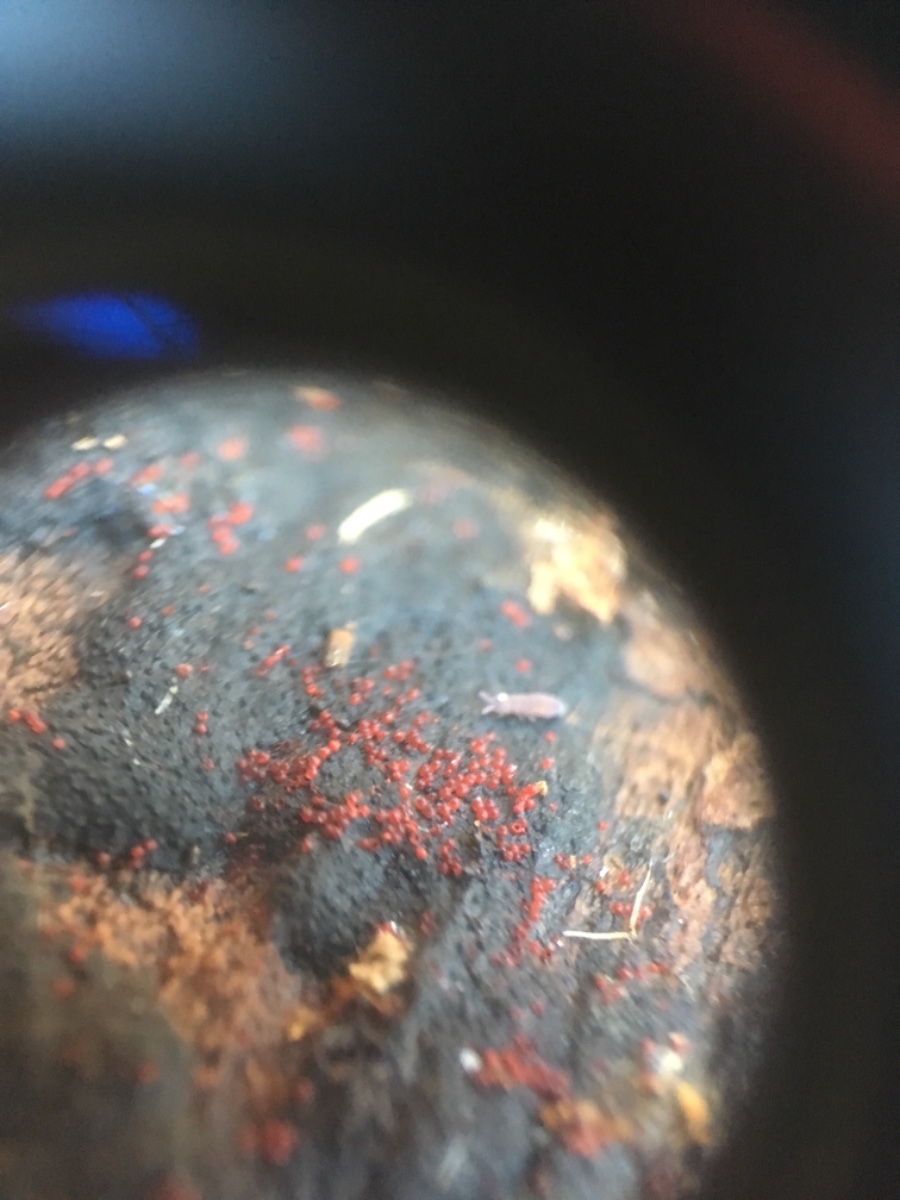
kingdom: Fungi
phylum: Ascomycota
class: Sordariomycetes
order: Hypocreales
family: Nectriaceae
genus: Dialonectria
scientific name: Dialonectria episphaeria
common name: kulskorpe-cinnobersvamp
